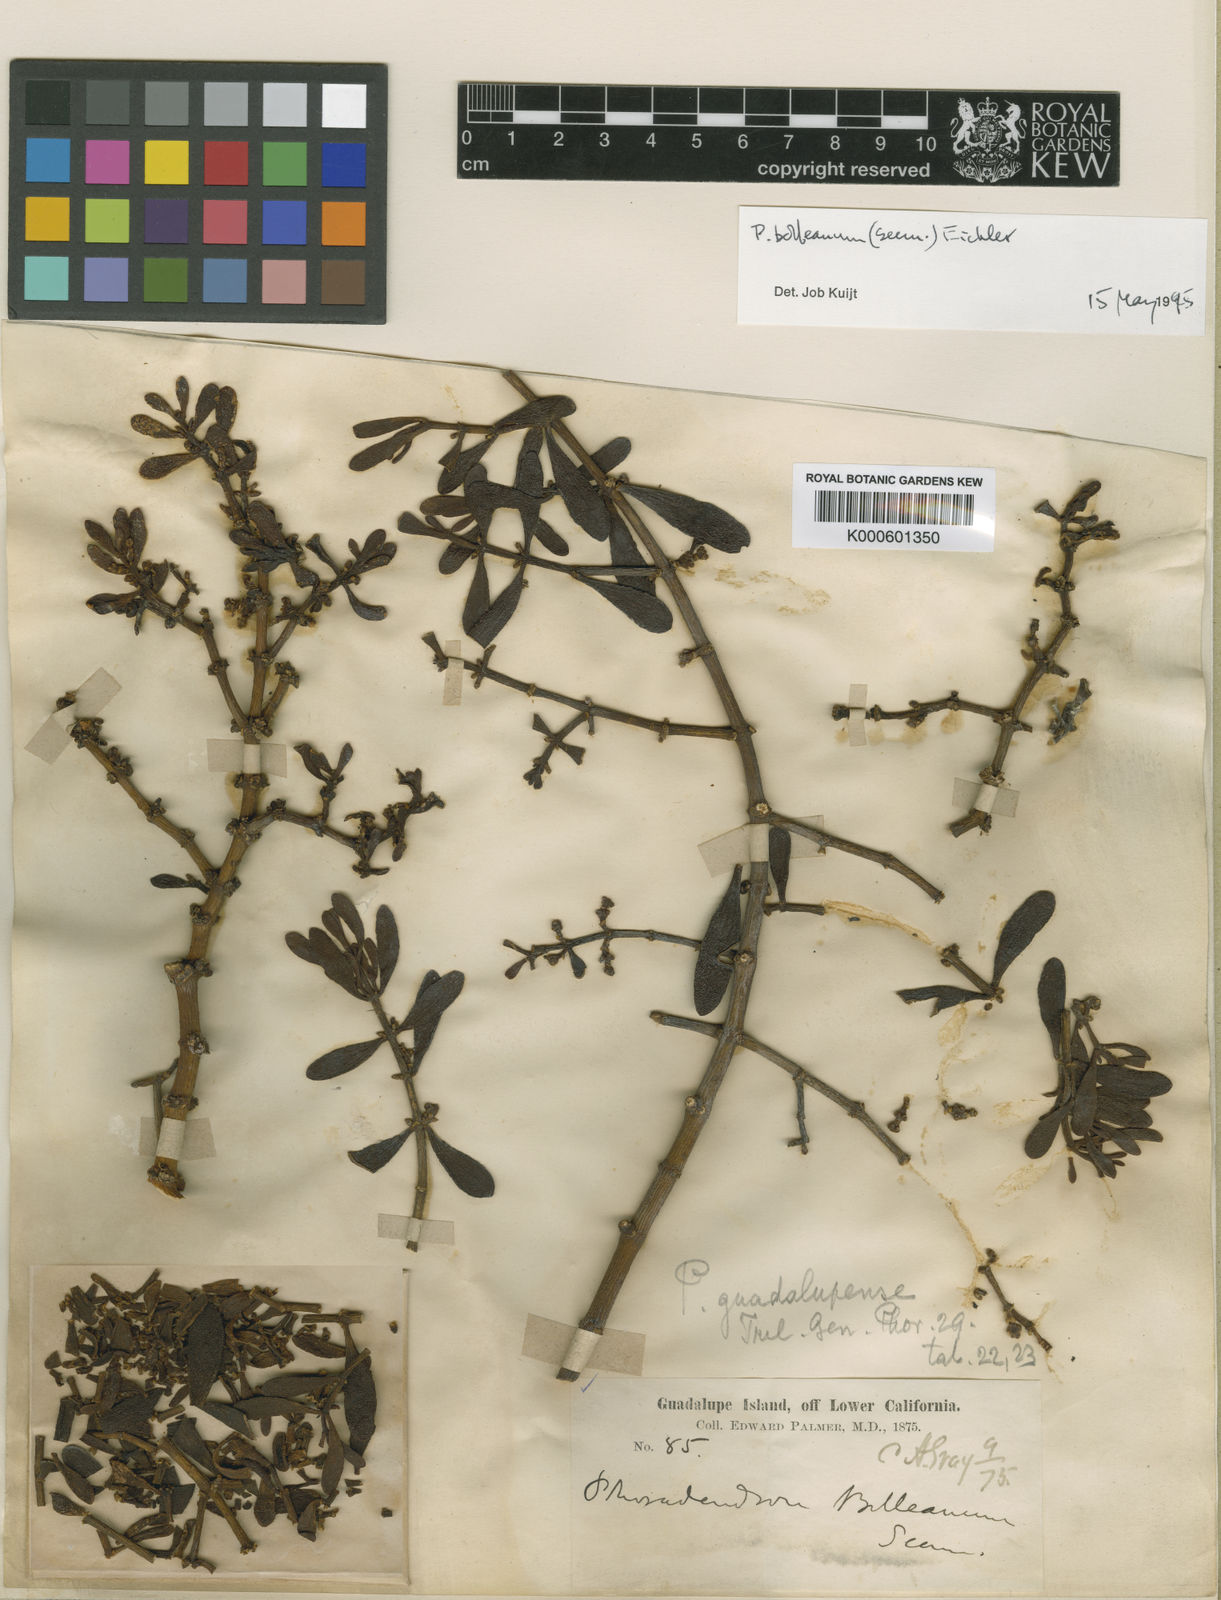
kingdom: Plantae
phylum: Tracheophyta
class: Magnoliopsida
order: Santalales
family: Viscaceae
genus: Phoradendron
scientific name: Phoradendron bolleanum
